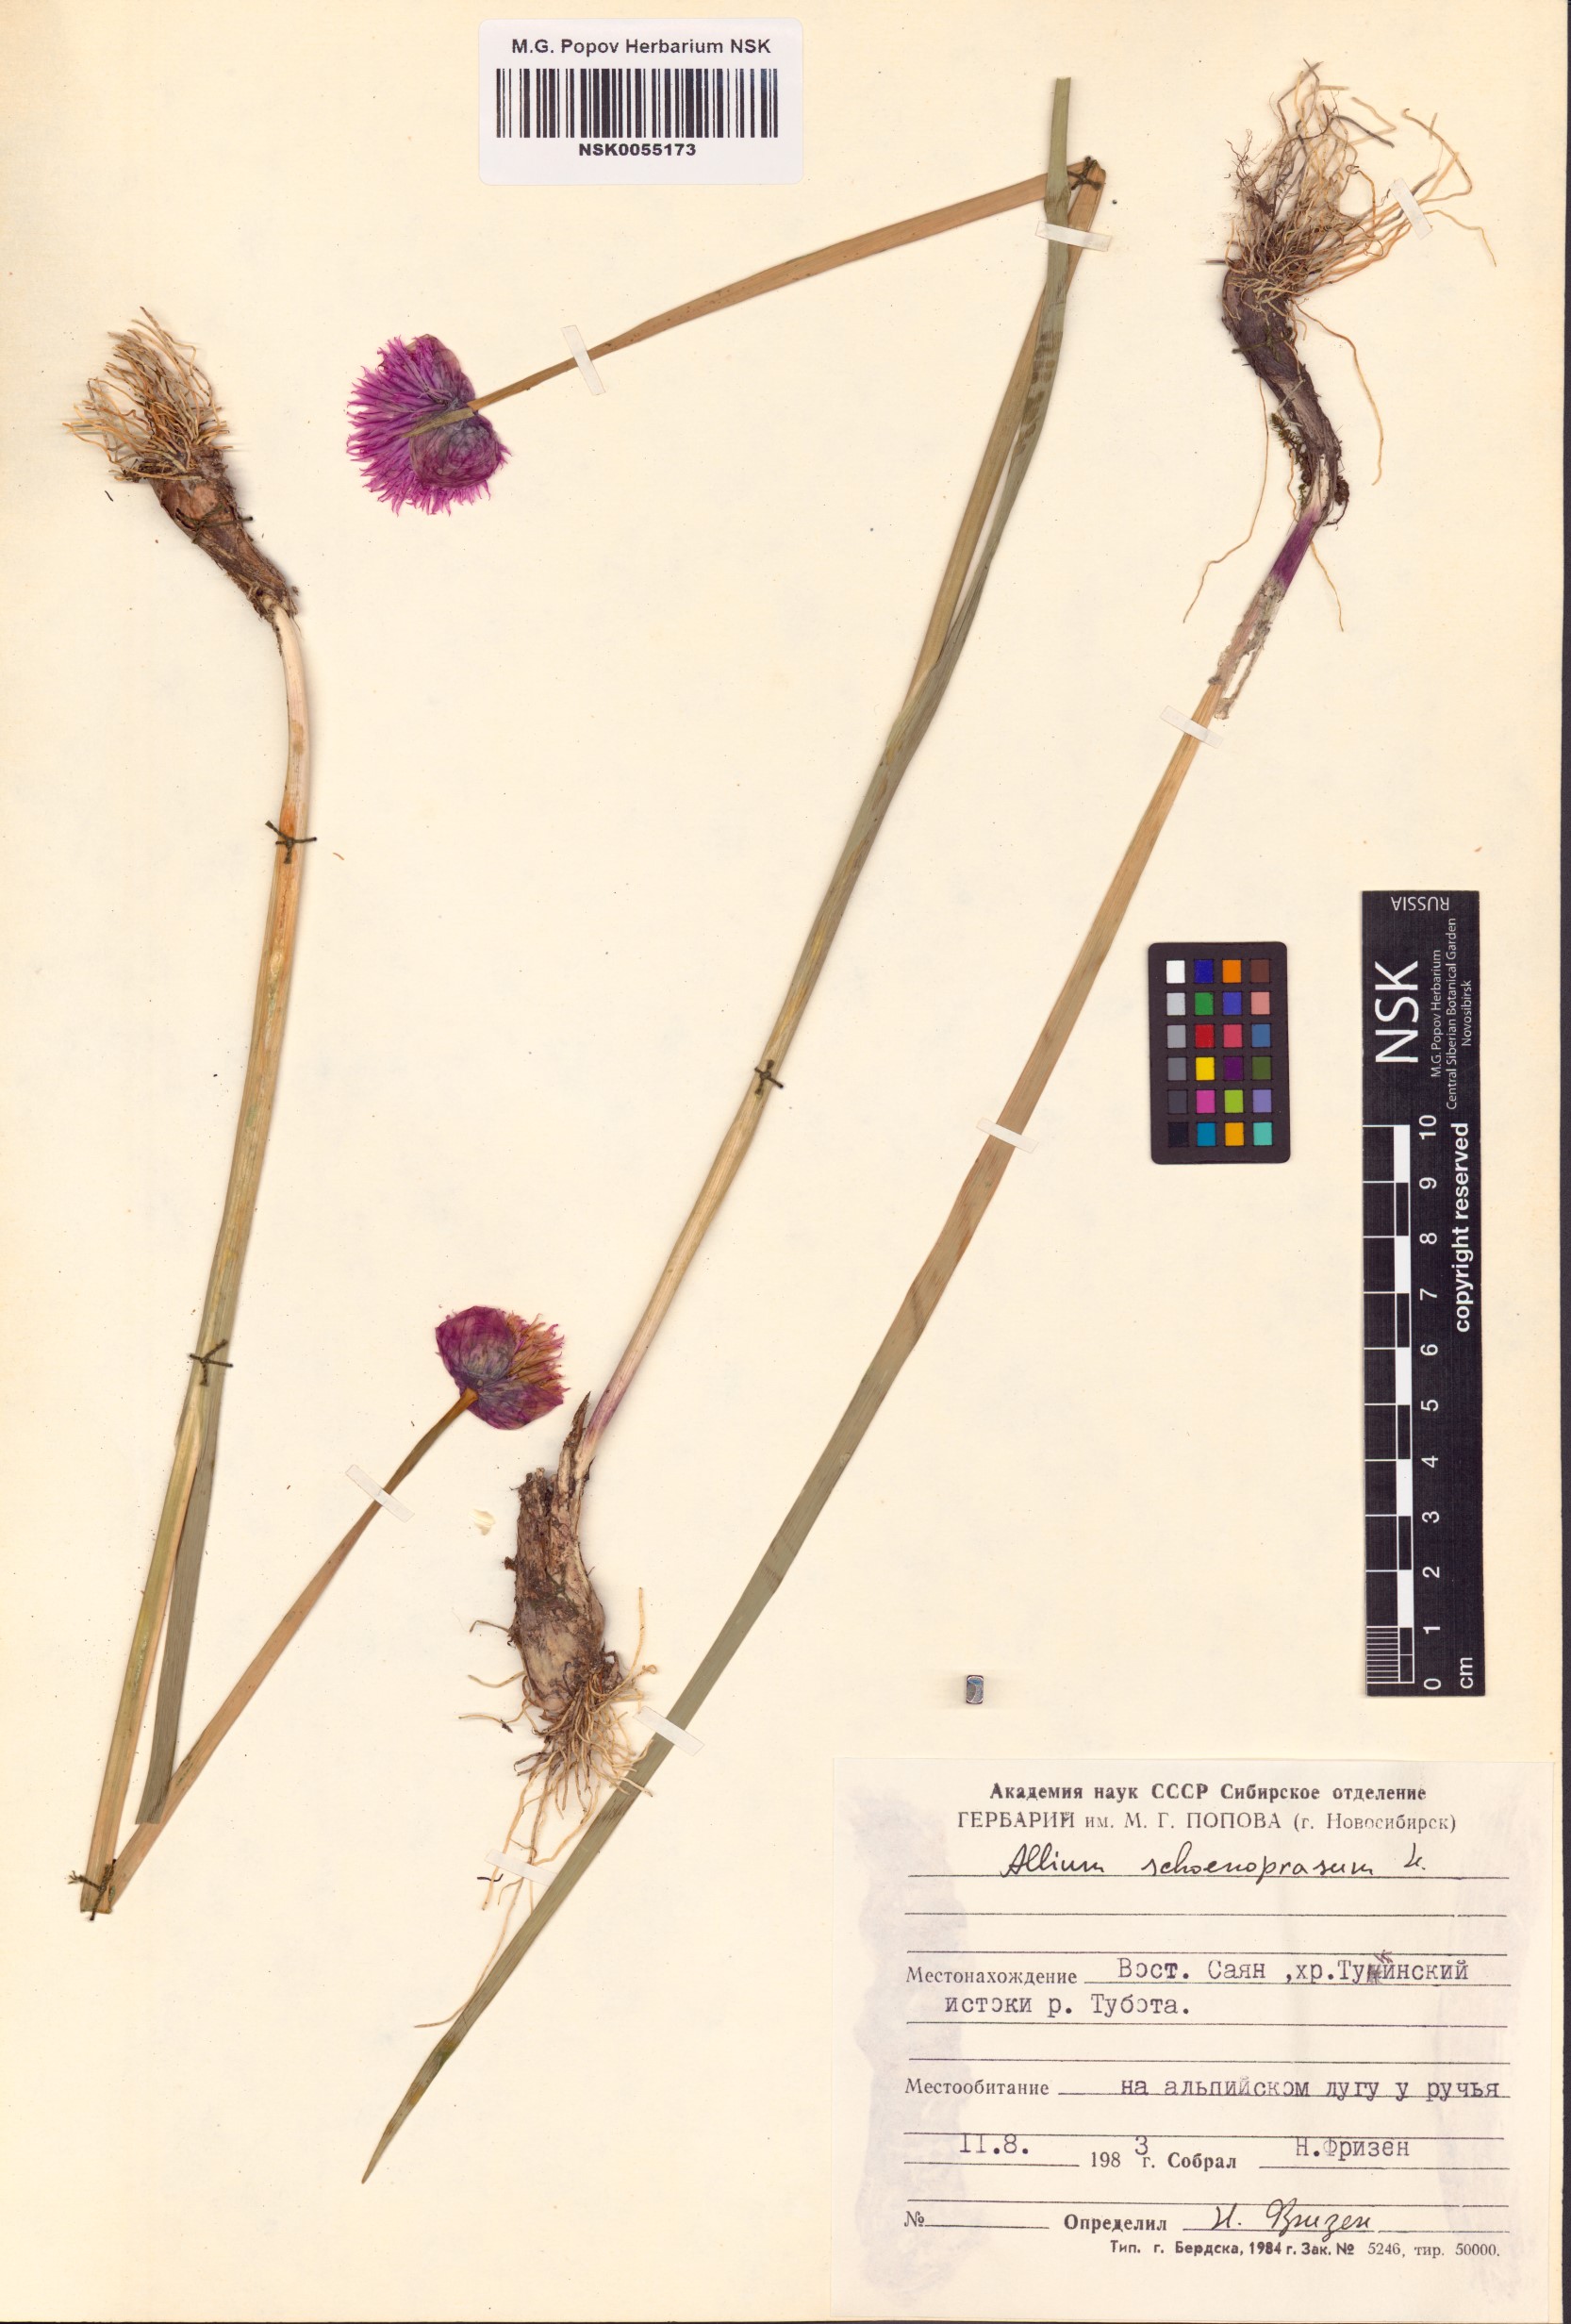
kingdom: Plantae
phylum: Tracheophyta
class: Liliopsida
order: Asparagales
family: Amaryllidaceae
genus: Allium
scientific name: Allium schoenoprasum
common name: Chives
